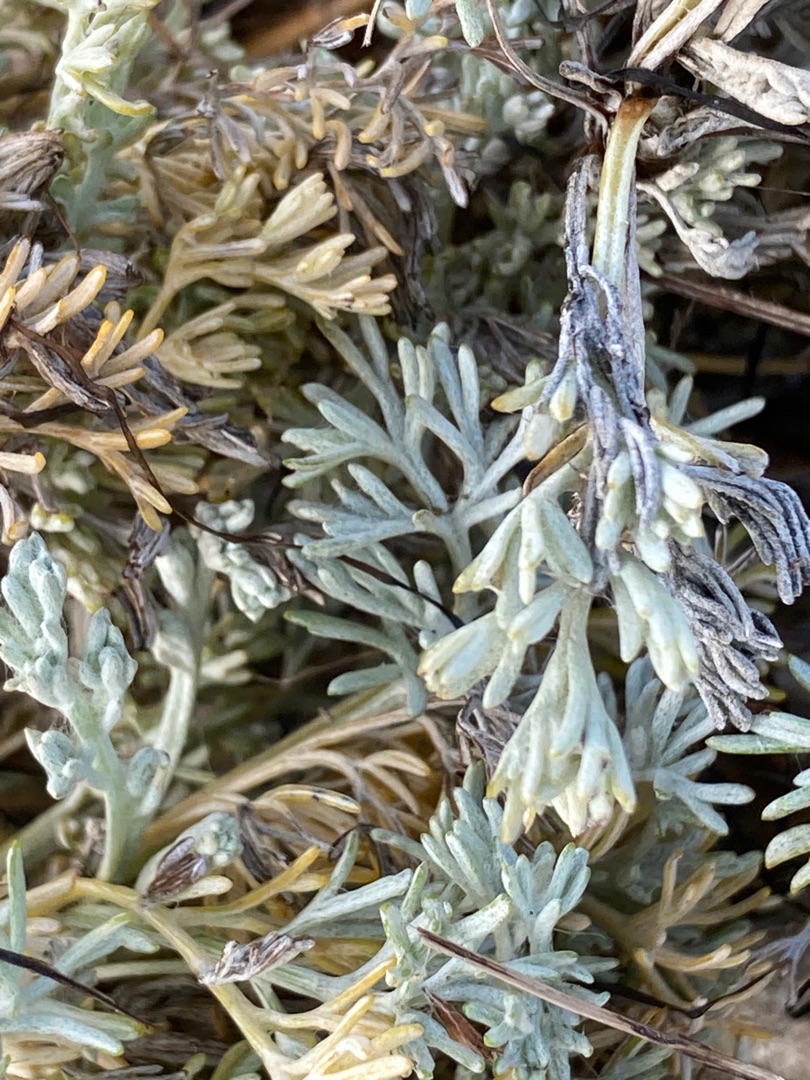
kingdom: Plantae
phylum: Tracheophyta
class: Magnoliopsida
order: Asterales
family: Asteraceae
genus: Artemisia
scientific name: Artemisia maritima
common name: Strandmalurt
